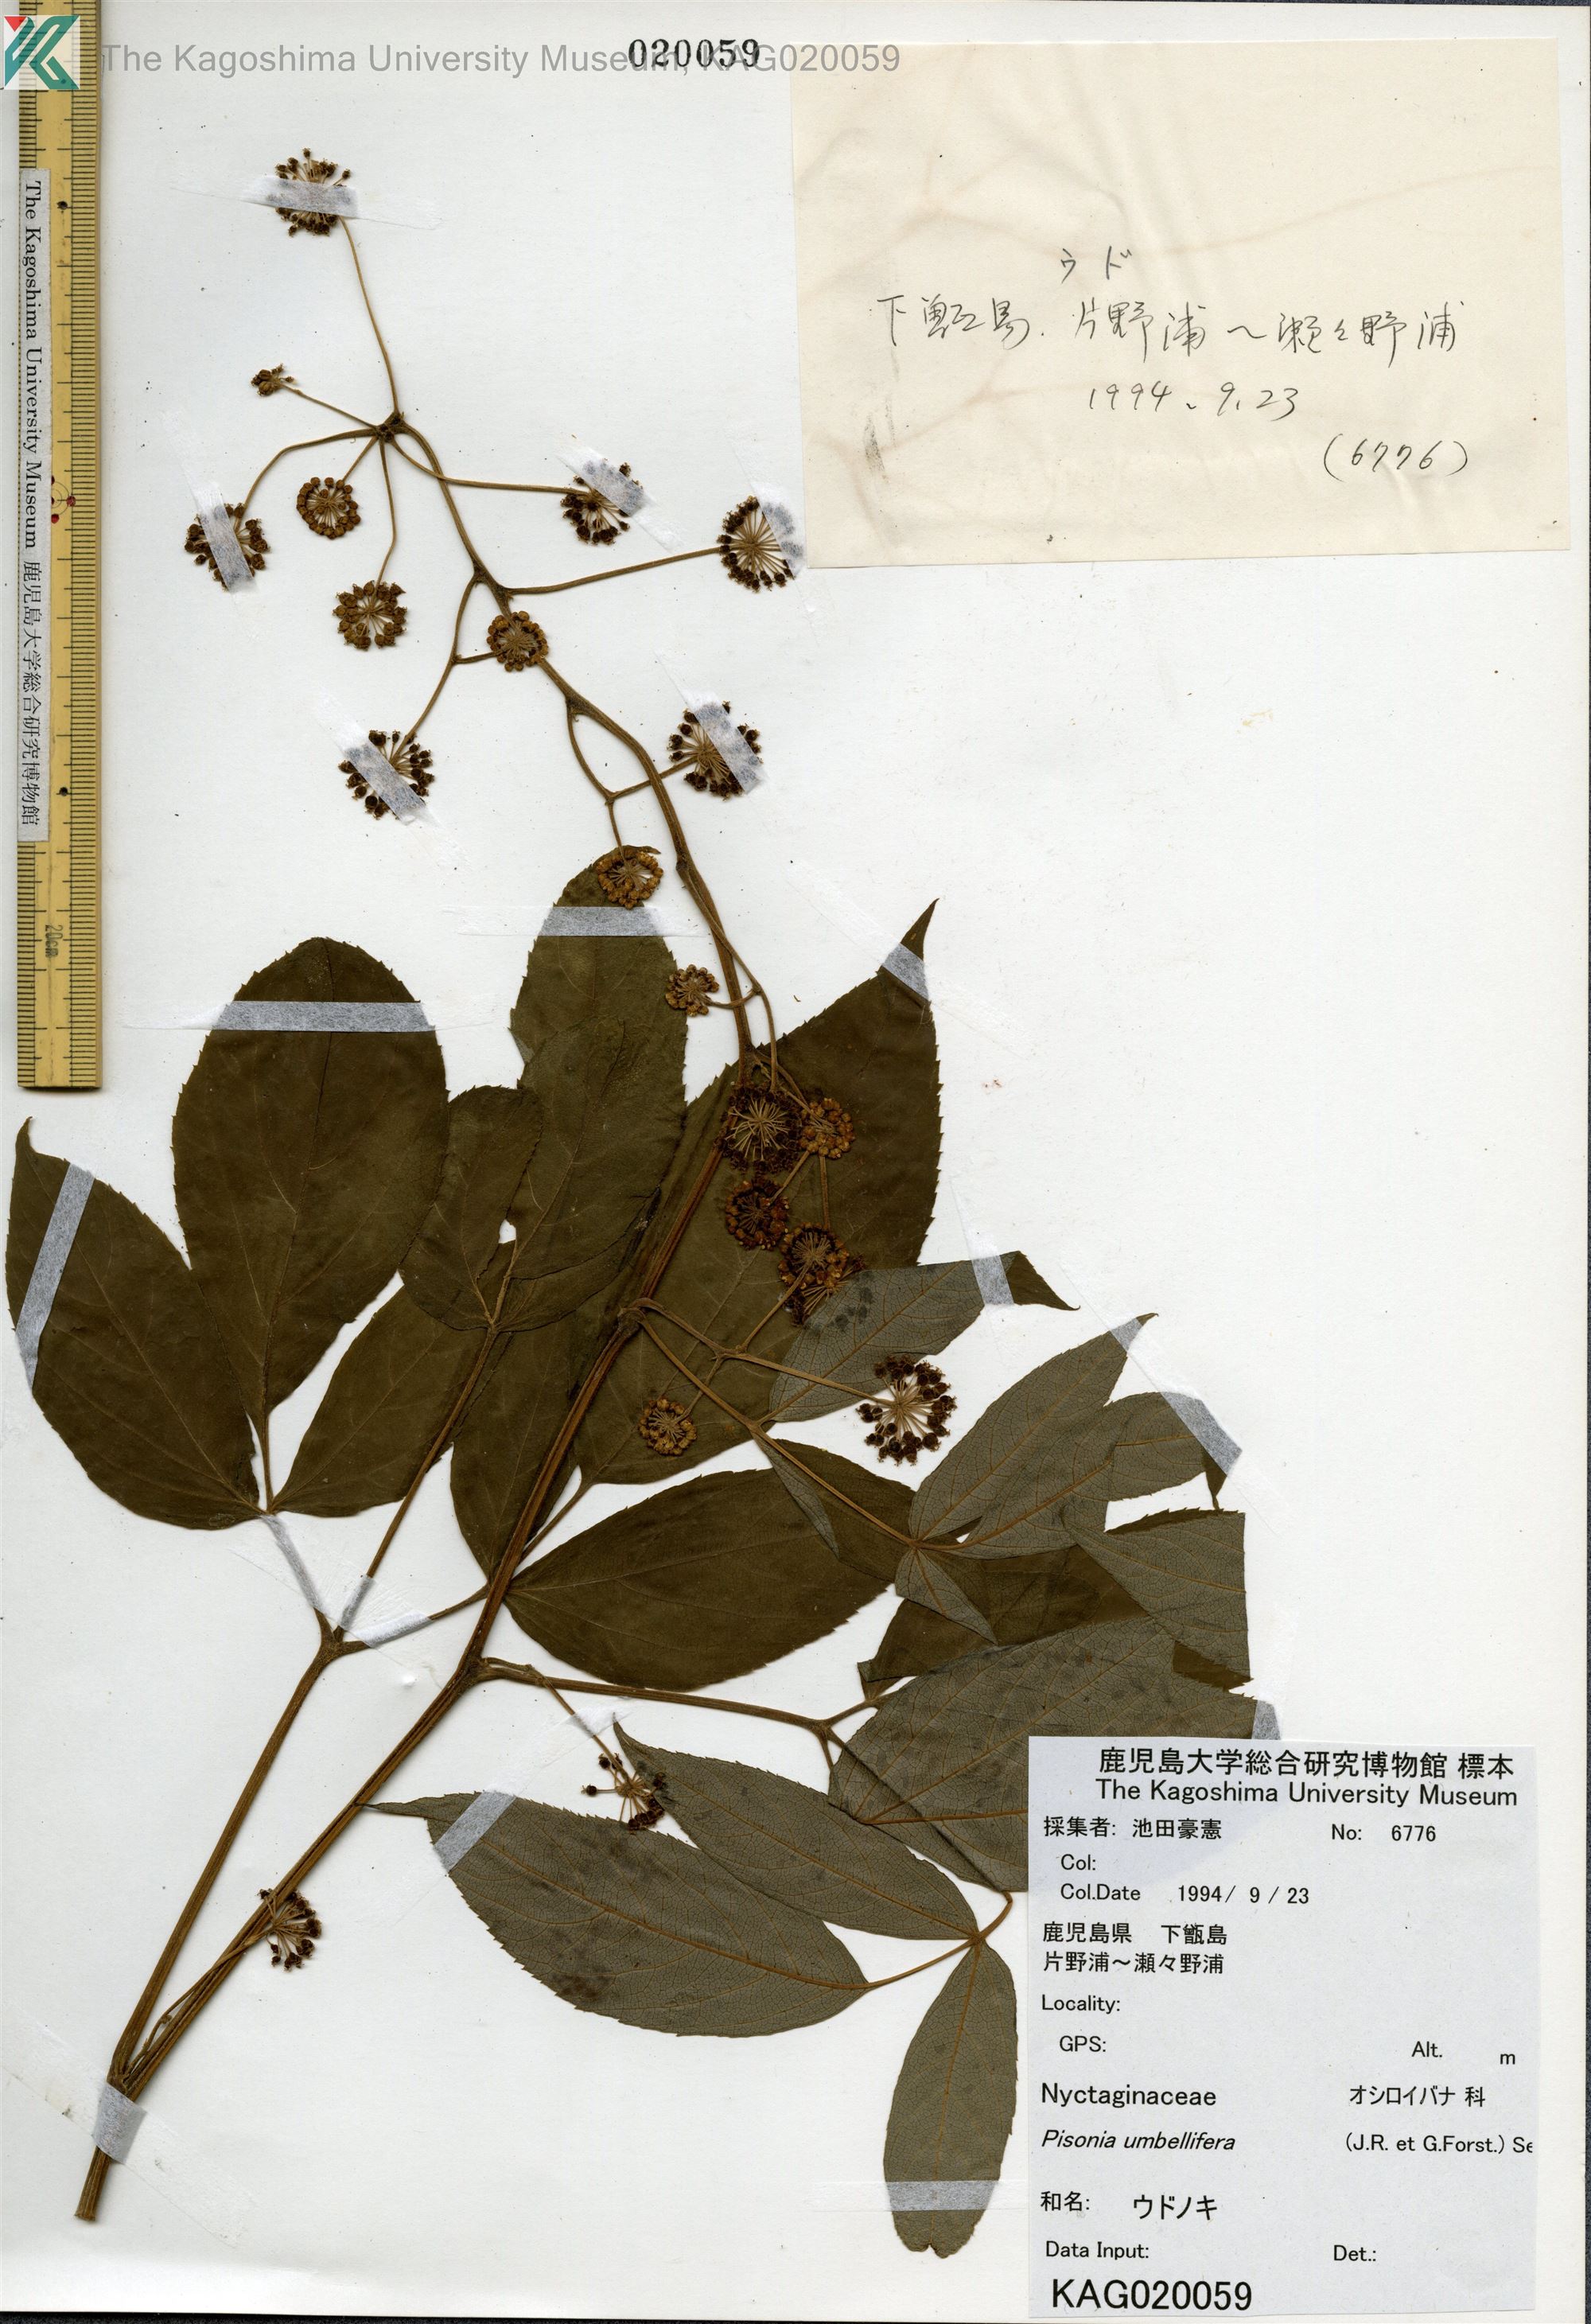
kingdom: Plantae
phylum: Tracheophyta
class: Magnoliopsida
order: Apiales
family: Araliaceae
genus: Aralia
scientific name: Aralia cordata
